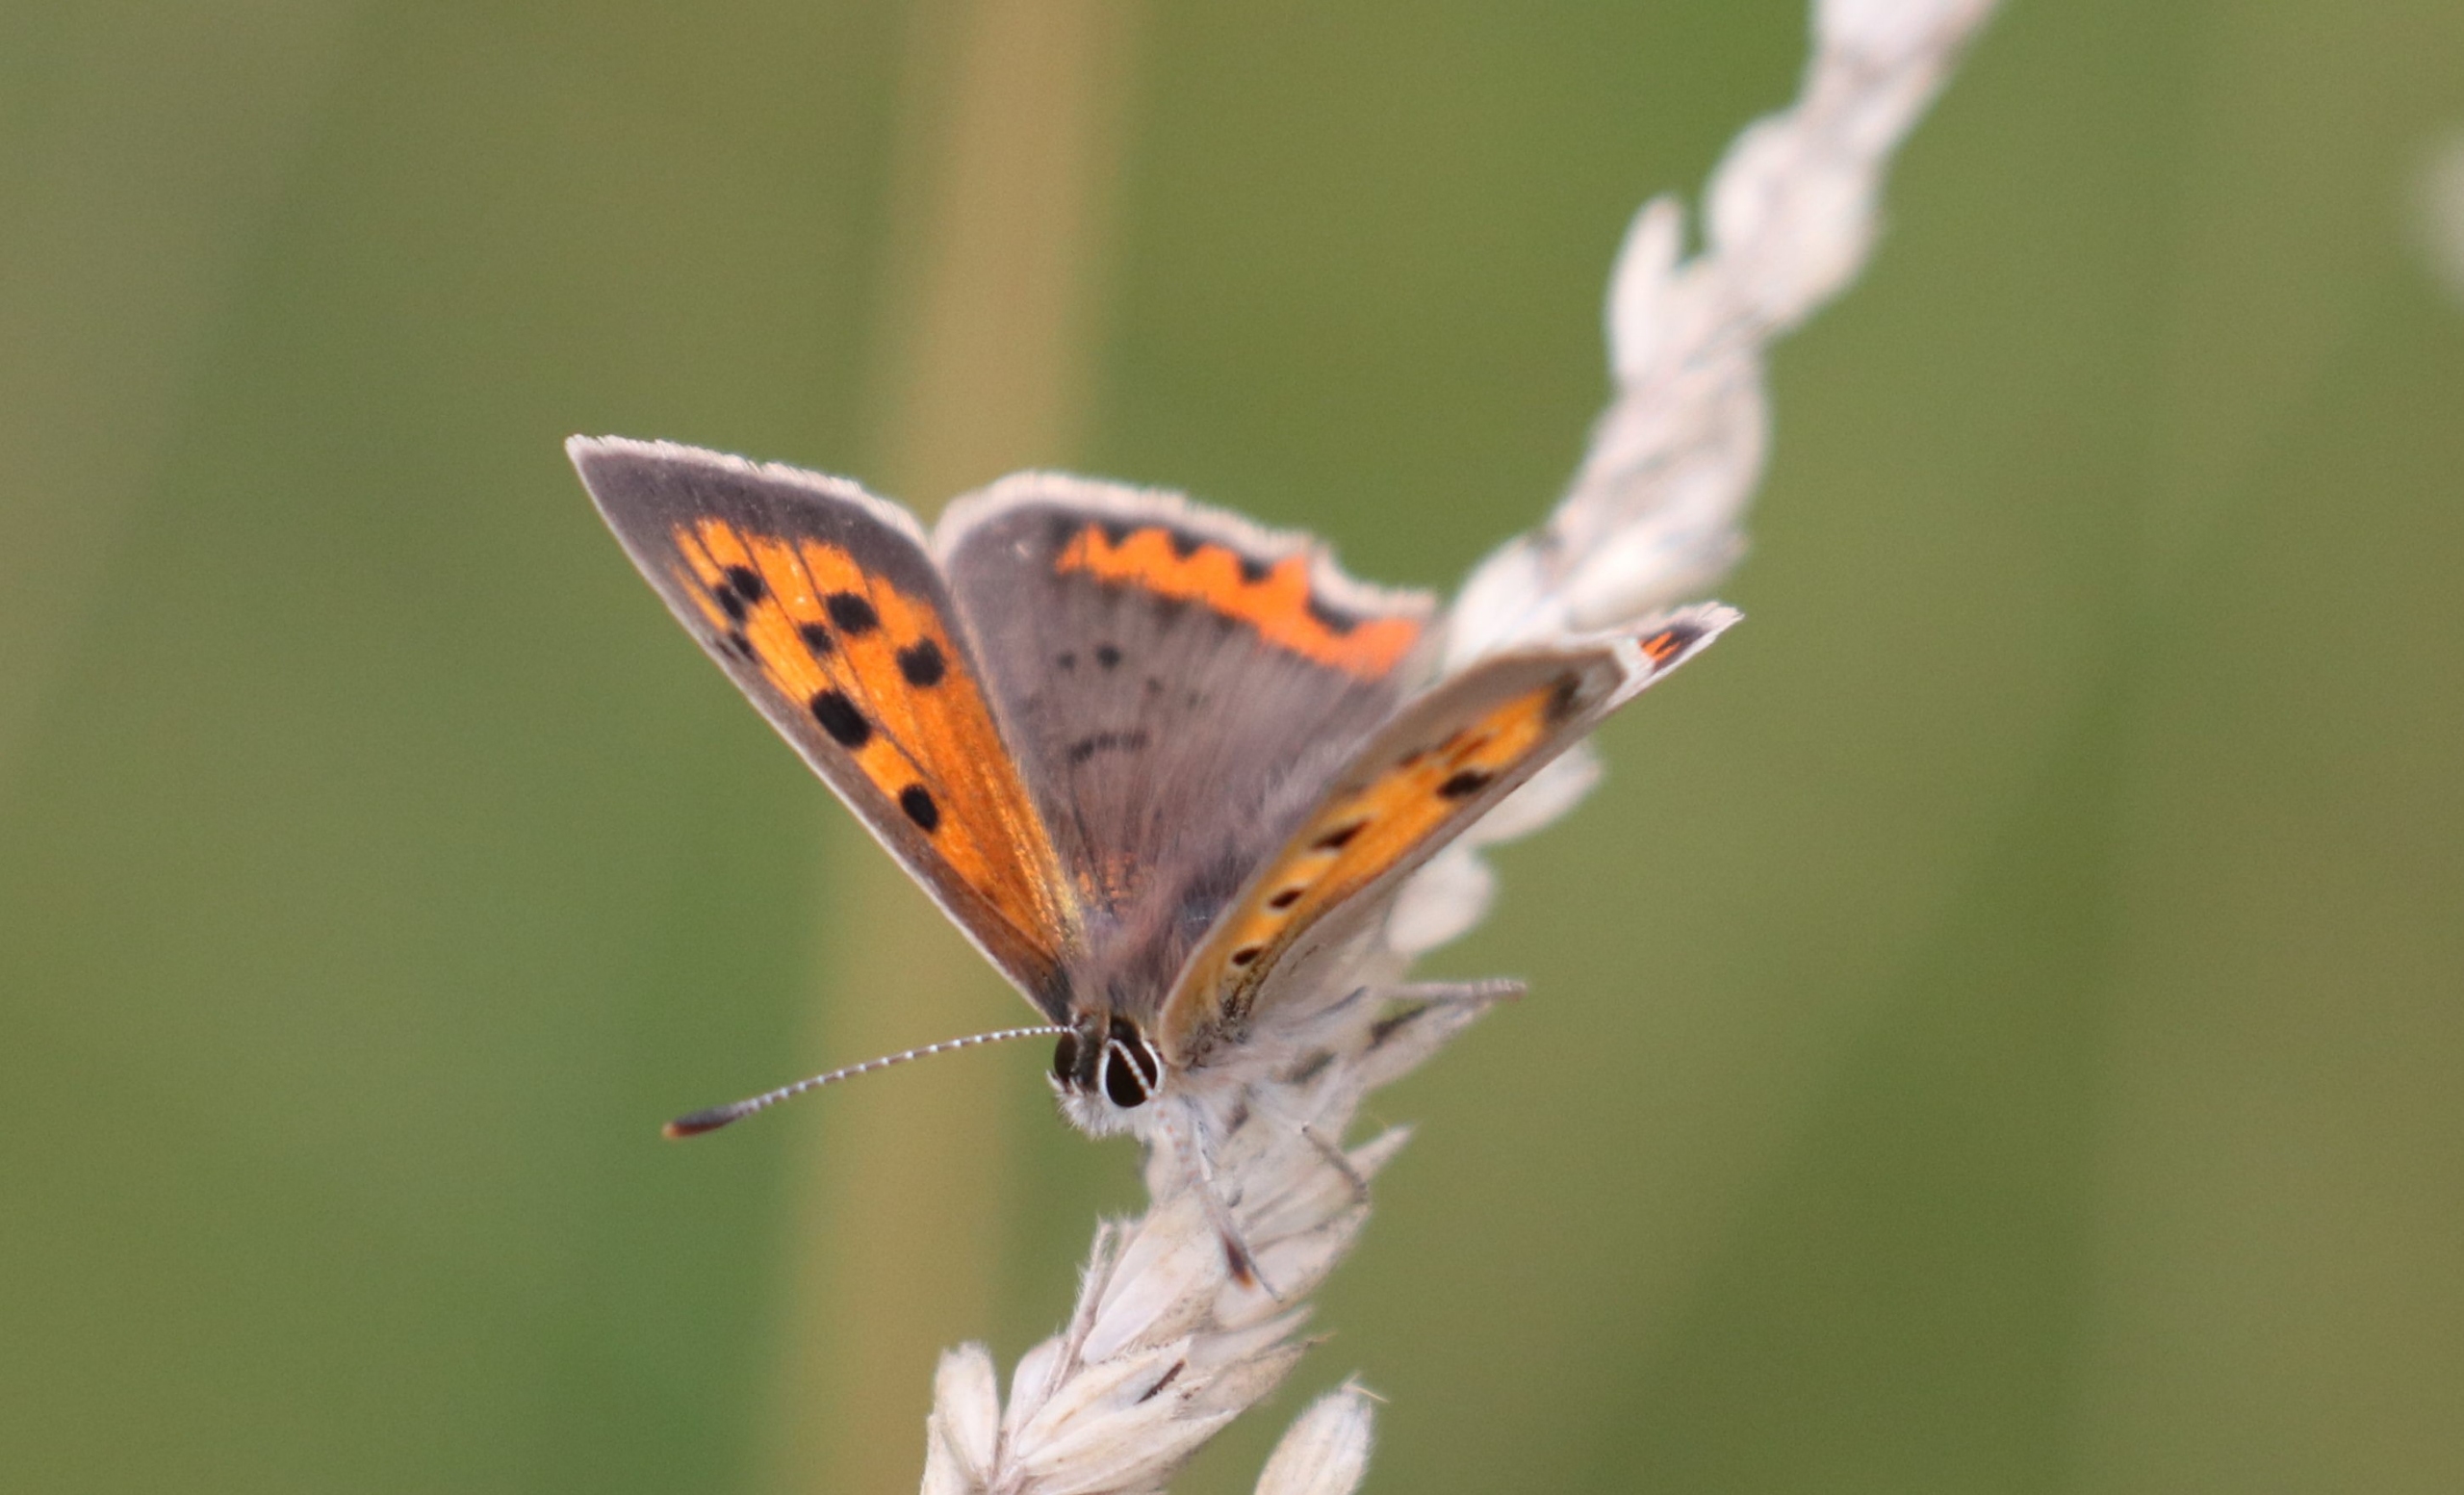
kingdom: Animalia
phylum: Arthropoda
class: Insecta
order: Lepidoptera
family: Lycaenidae
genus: Lycaena
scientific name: Lycaena phlaeas
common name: Lille ildfugl
